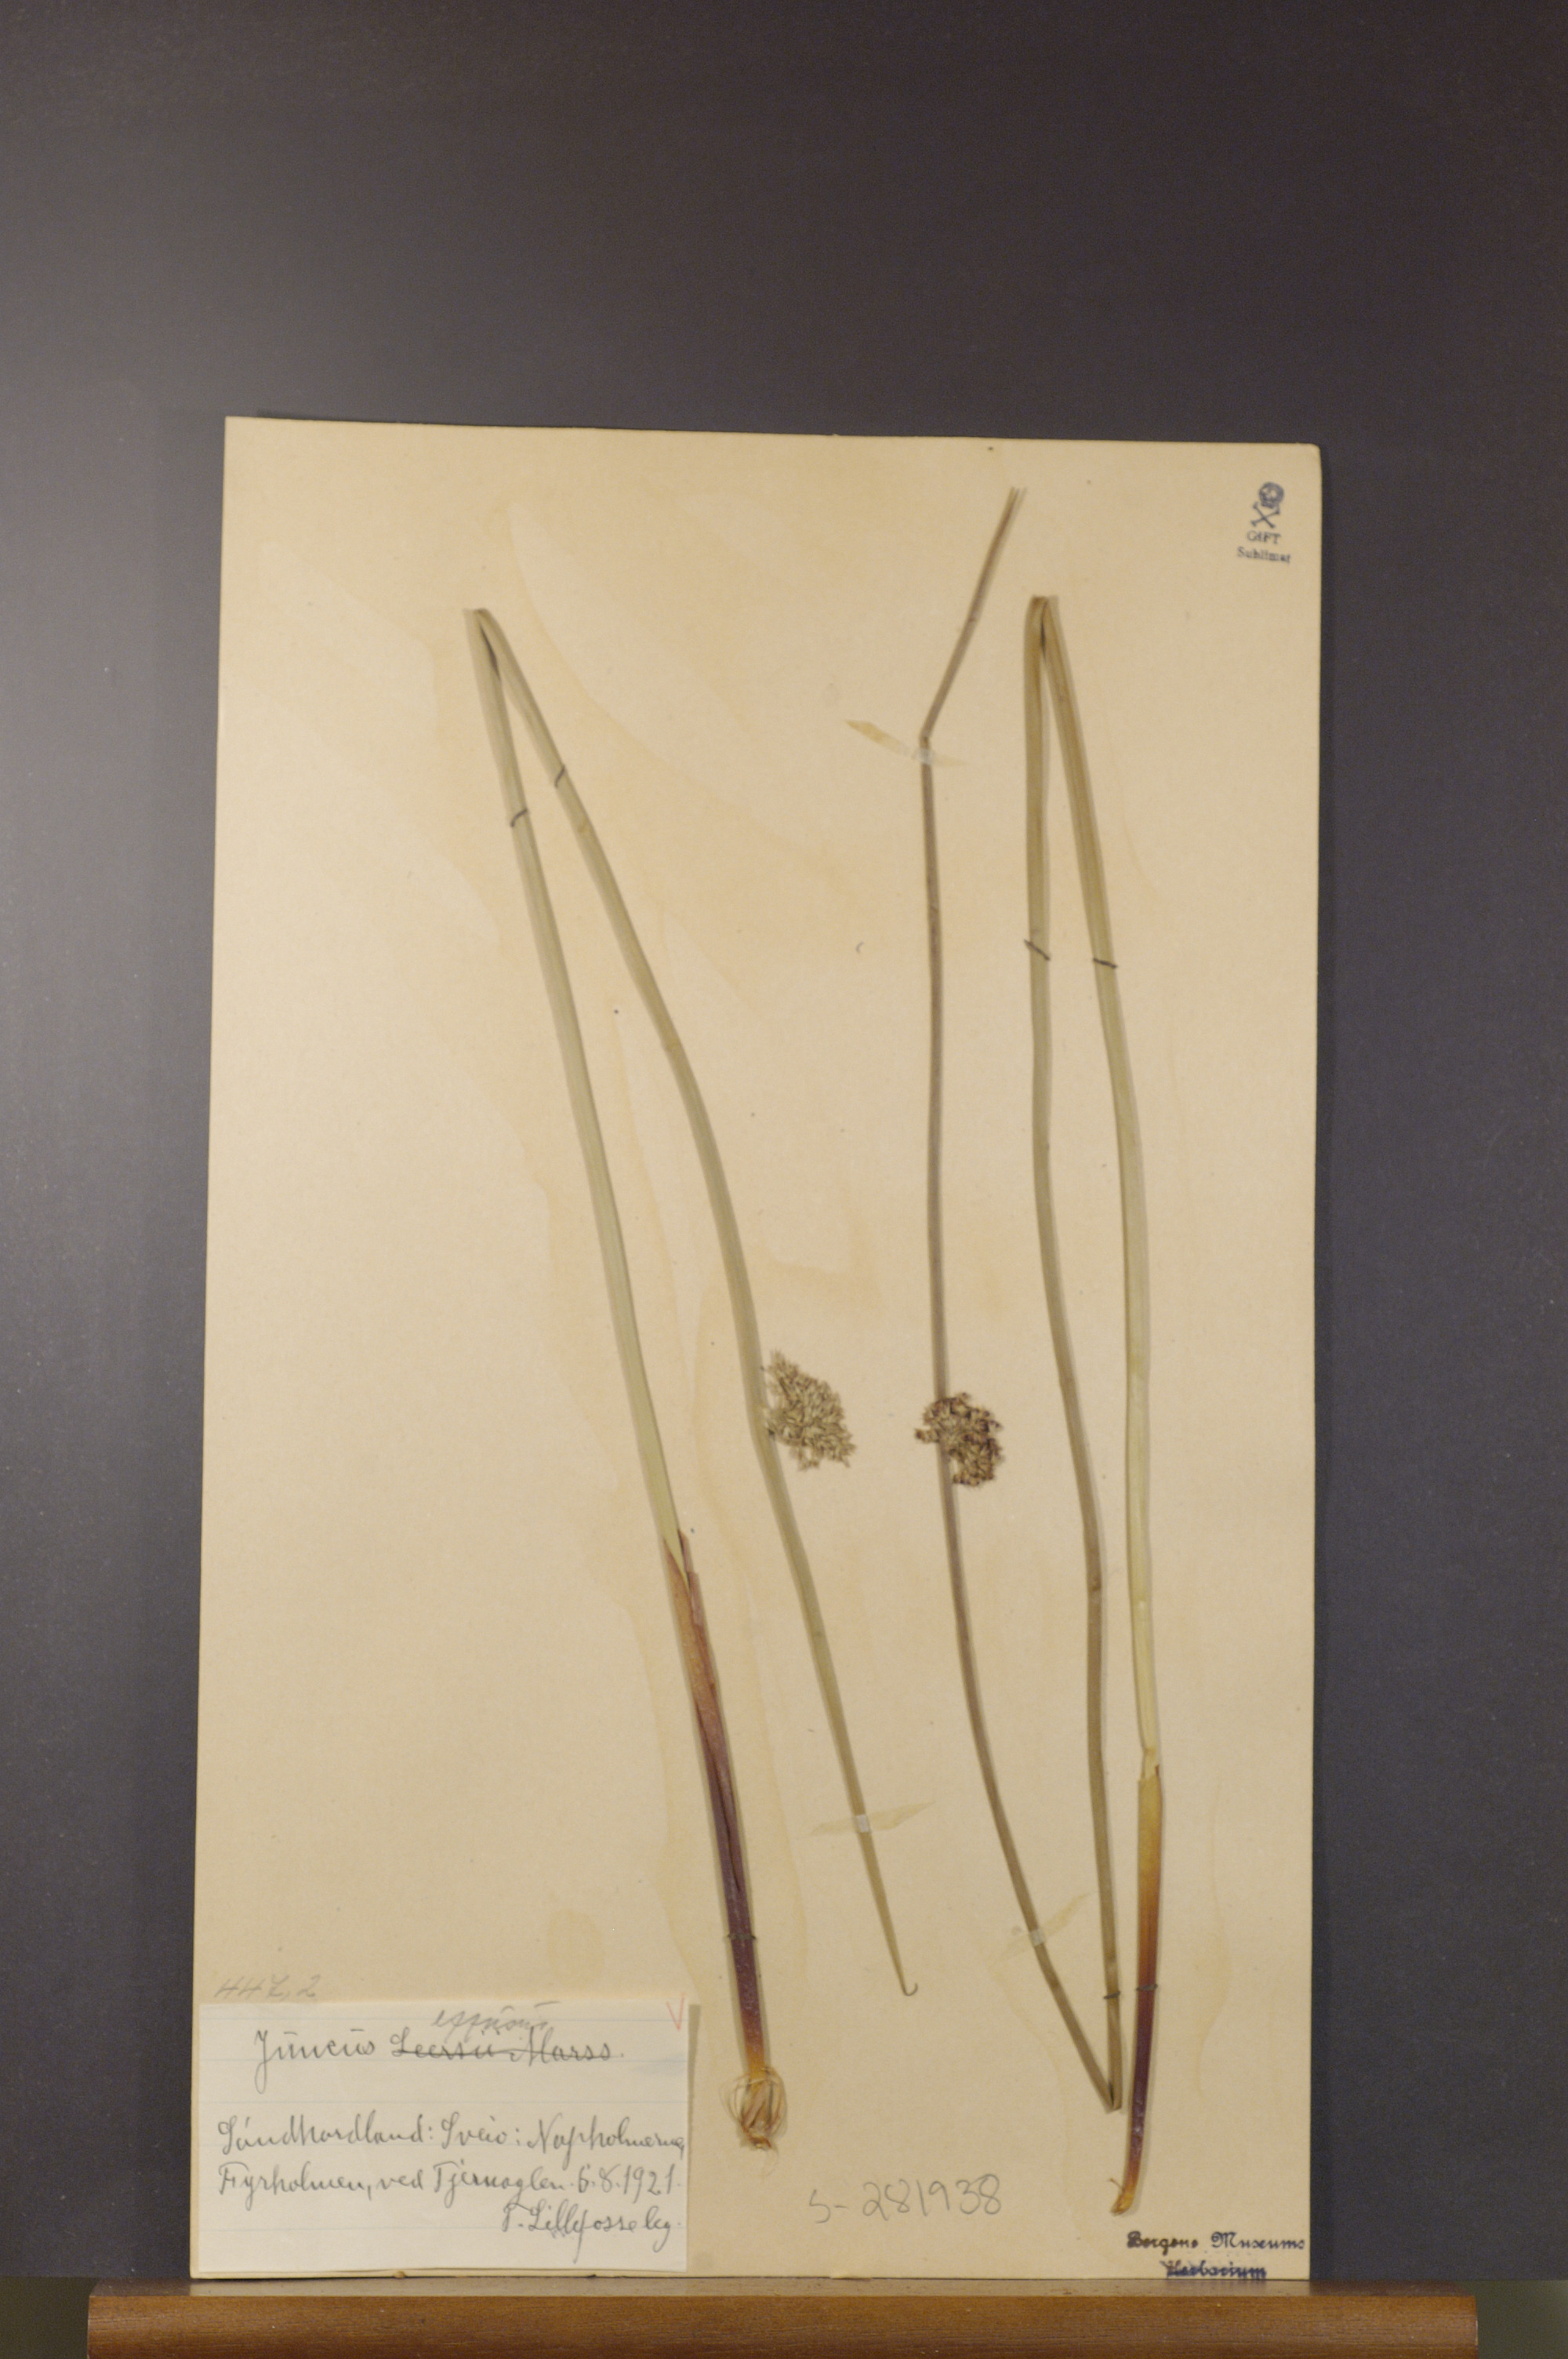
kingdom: Plantae
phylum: Tracheophyta
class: Liliopsida
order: Poales
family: Juncaceae
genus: Juncus
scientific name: Juncus effusus
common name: Soft rush
